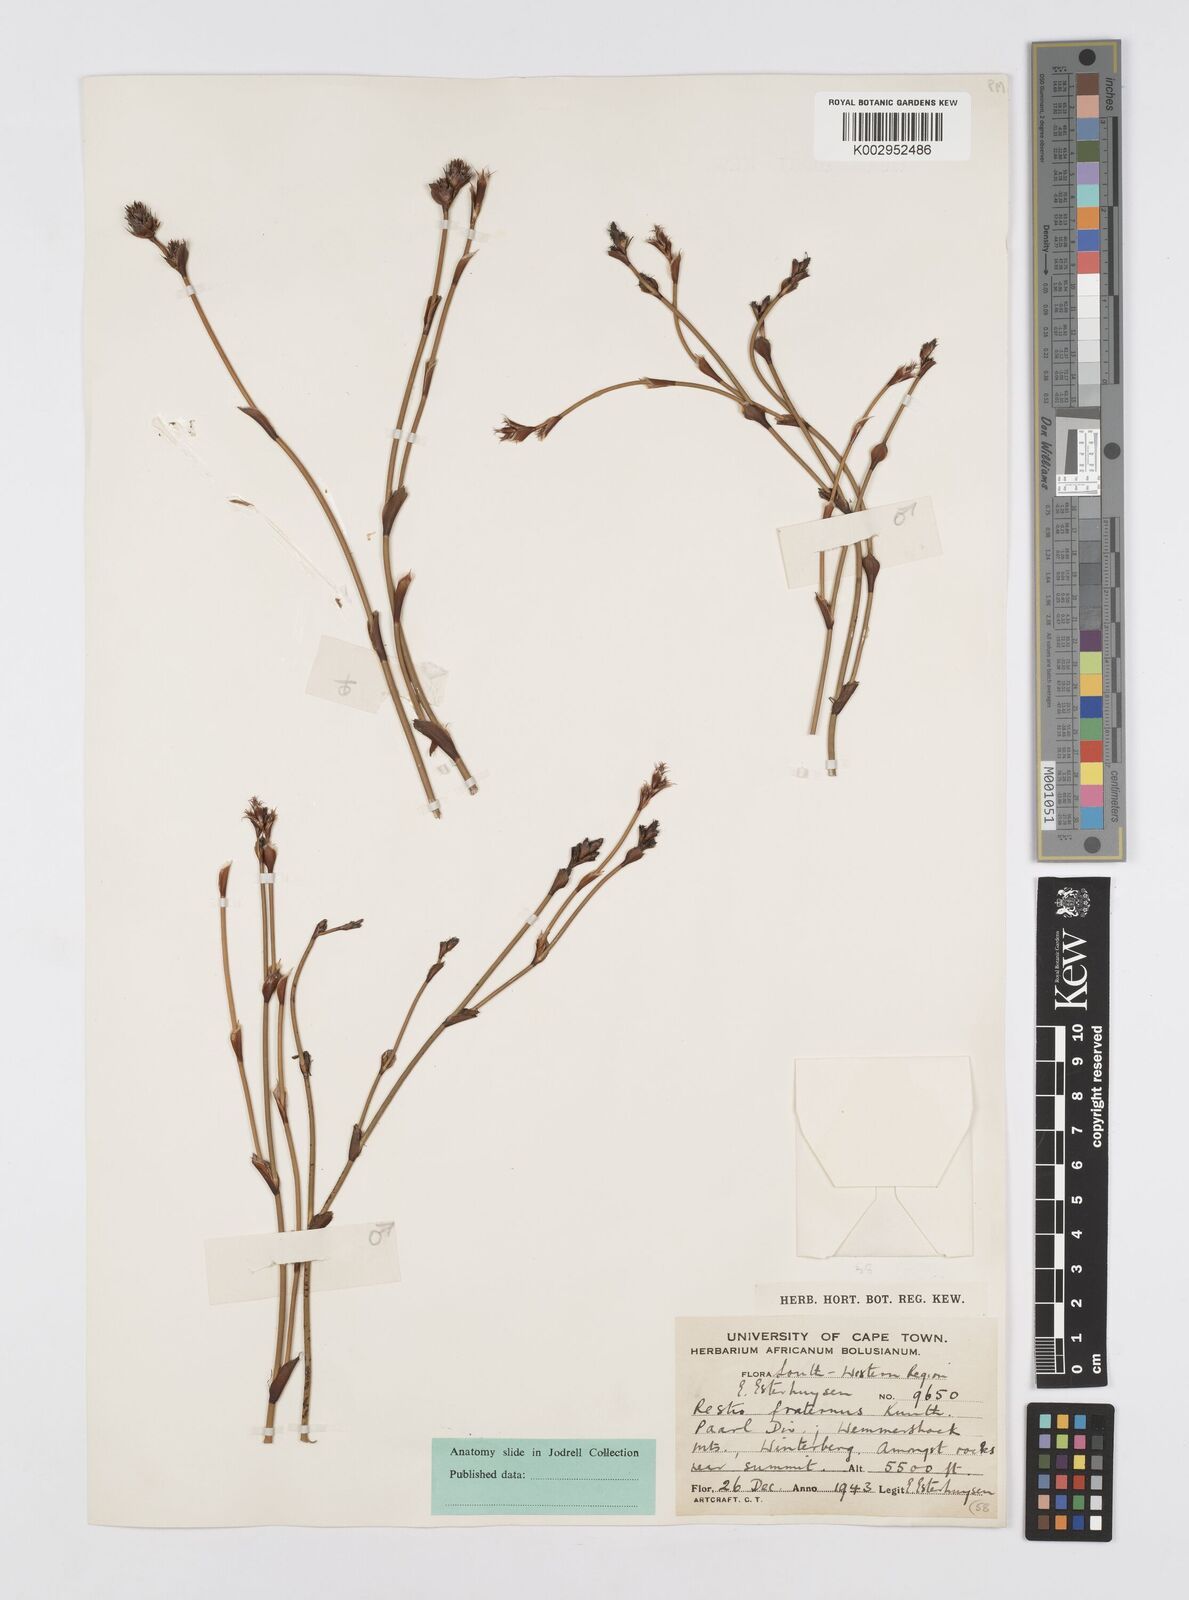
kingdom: Plantae
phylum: Tracheophyta
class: Liliopsida
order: Poales
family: Restionaceae
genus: Restio
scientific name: Restio fraternus
